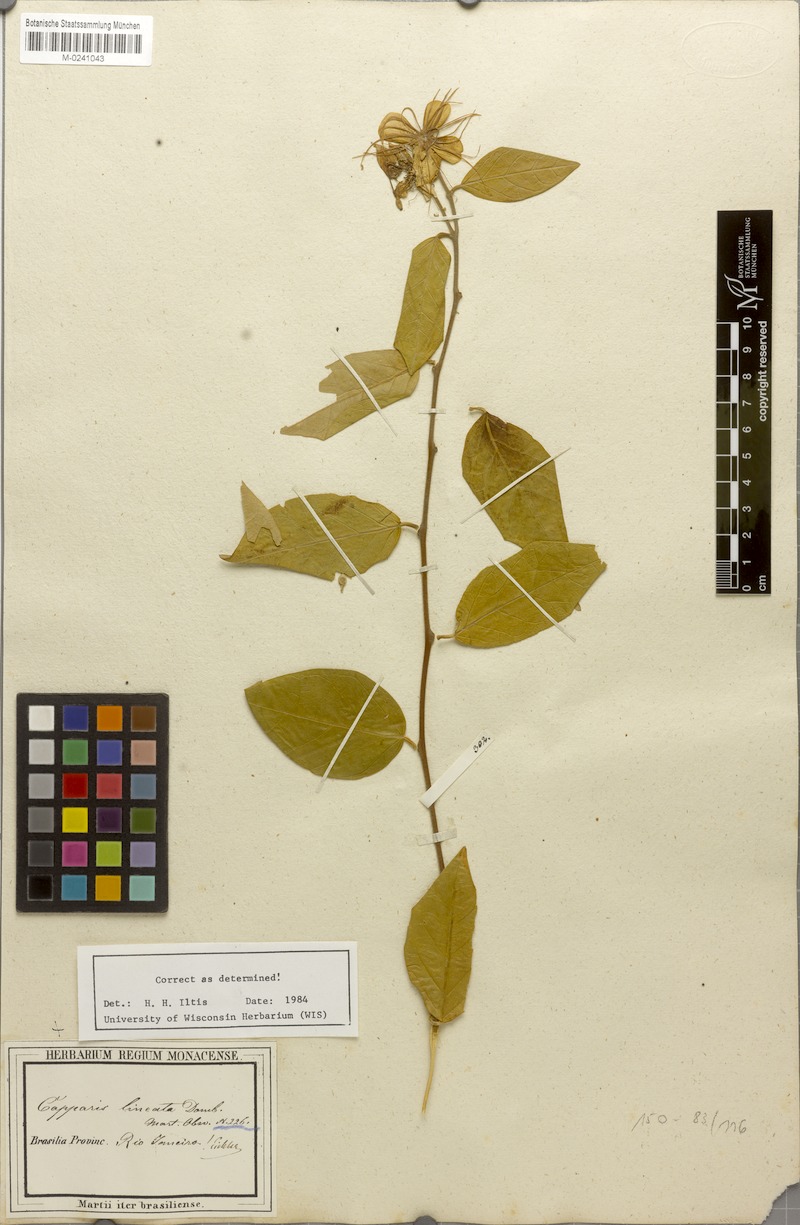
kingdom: Plantae
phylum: Tracheophyta
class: Magnoliopsida
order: Brassicales
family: Capparaceae
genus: Mesocapparis
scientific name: Mesocapparis lineata
